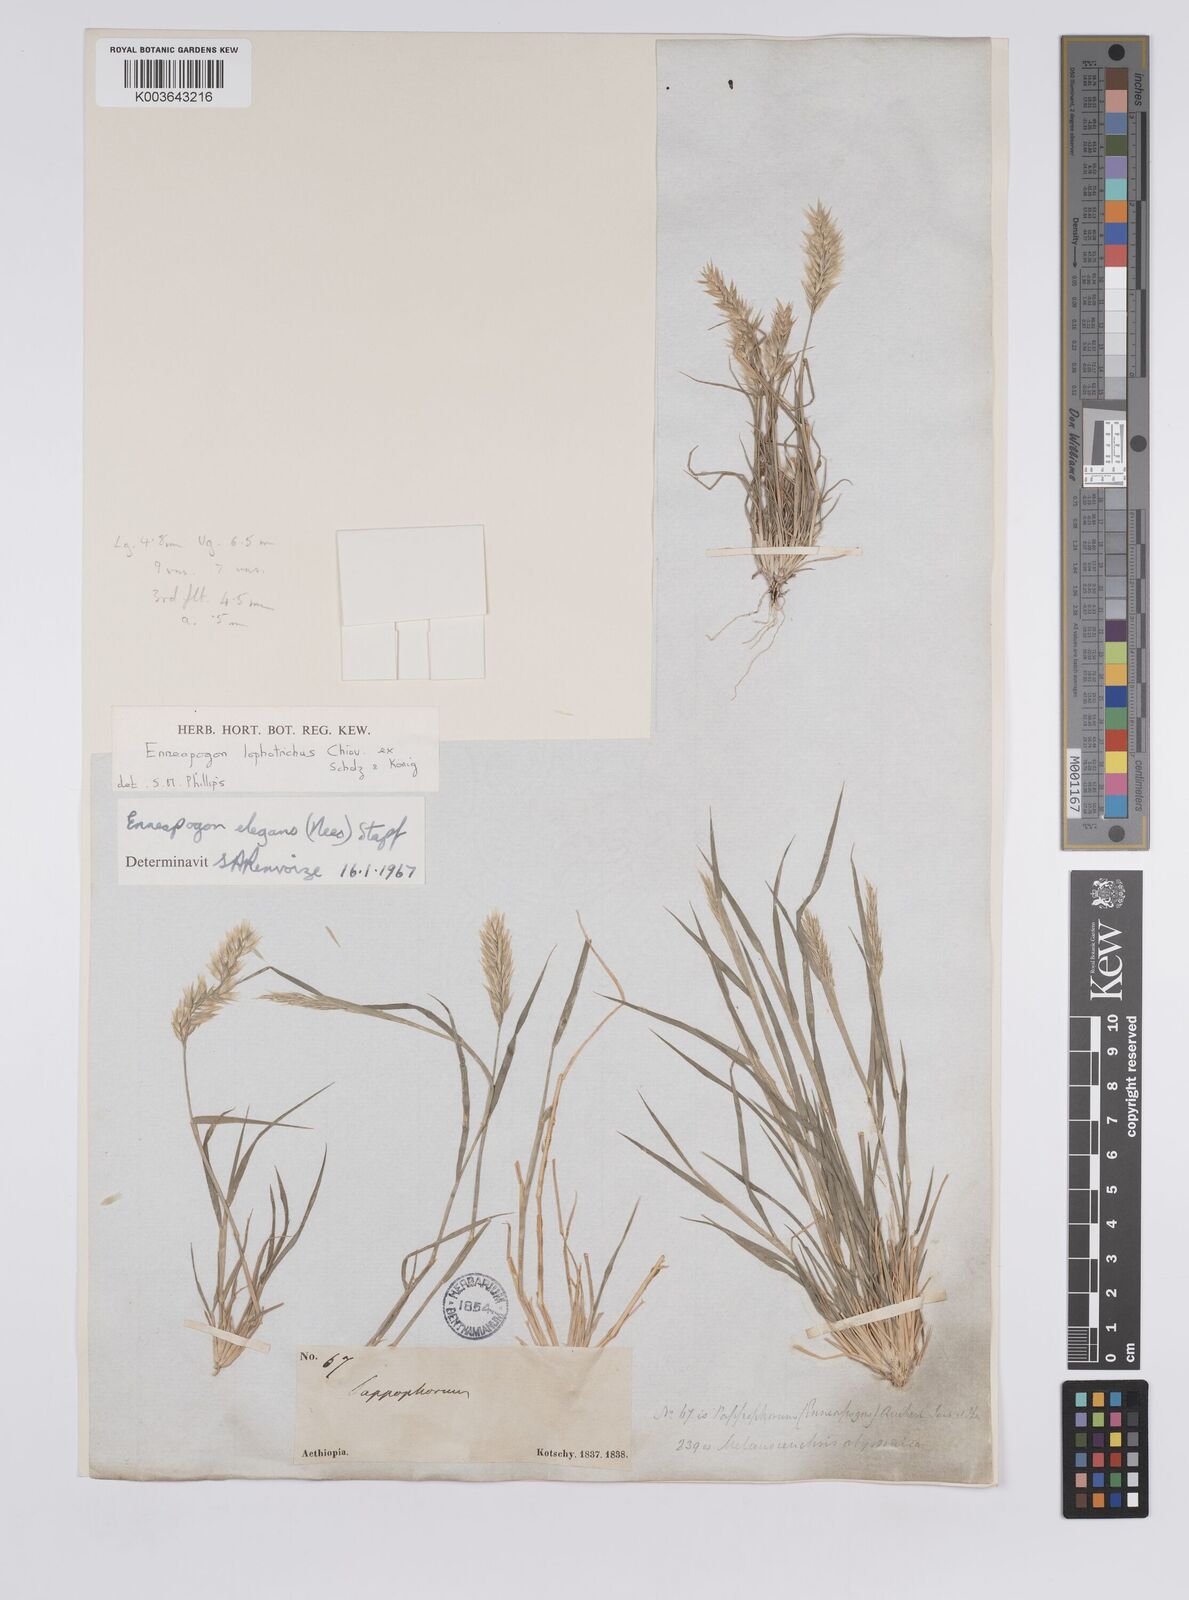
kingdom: Plantae
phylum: Tracheophyta
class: Liliopsida
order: Poales
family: Poaceae
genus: Enneapogon
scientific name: Enneapogon lophotrichus
